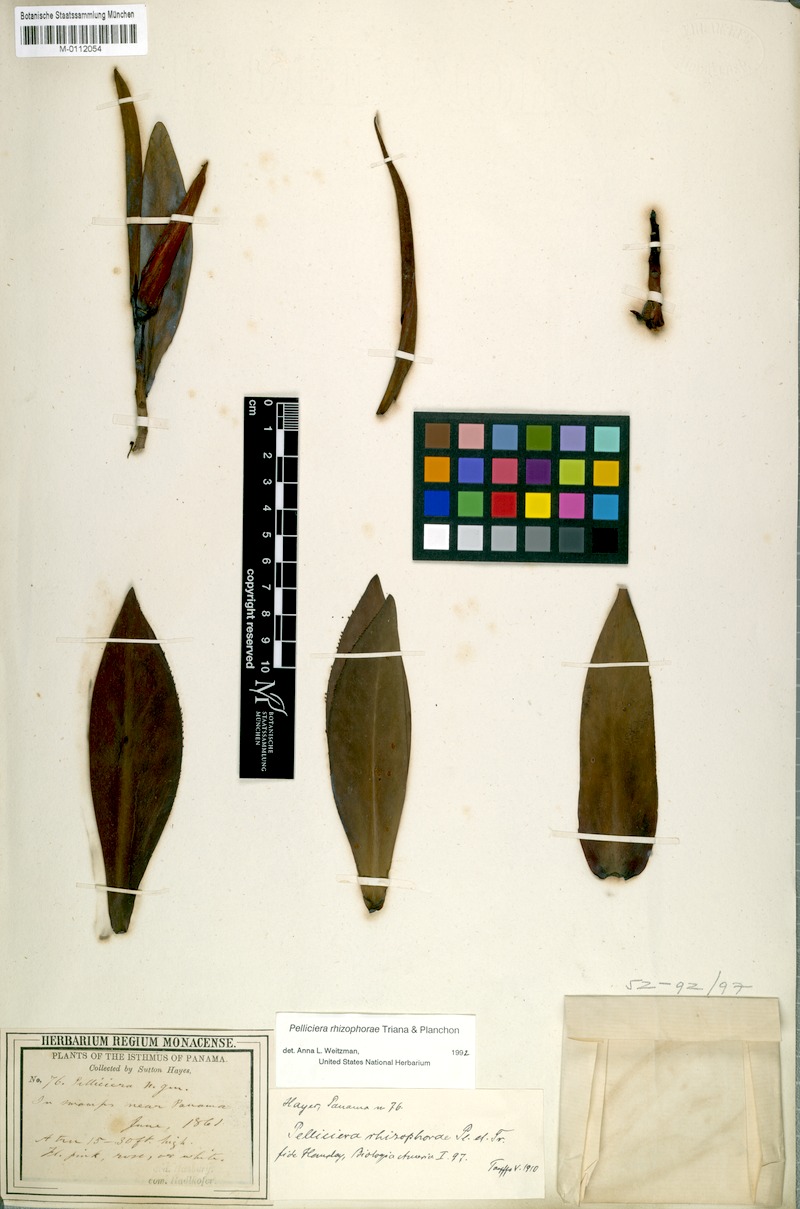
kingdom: Plantae
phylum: Tracheophyta
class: Magnoliopsida
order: Ericales
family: Tetrameristaceae
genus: Pelliciera
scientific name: Pelliciera benthamii
